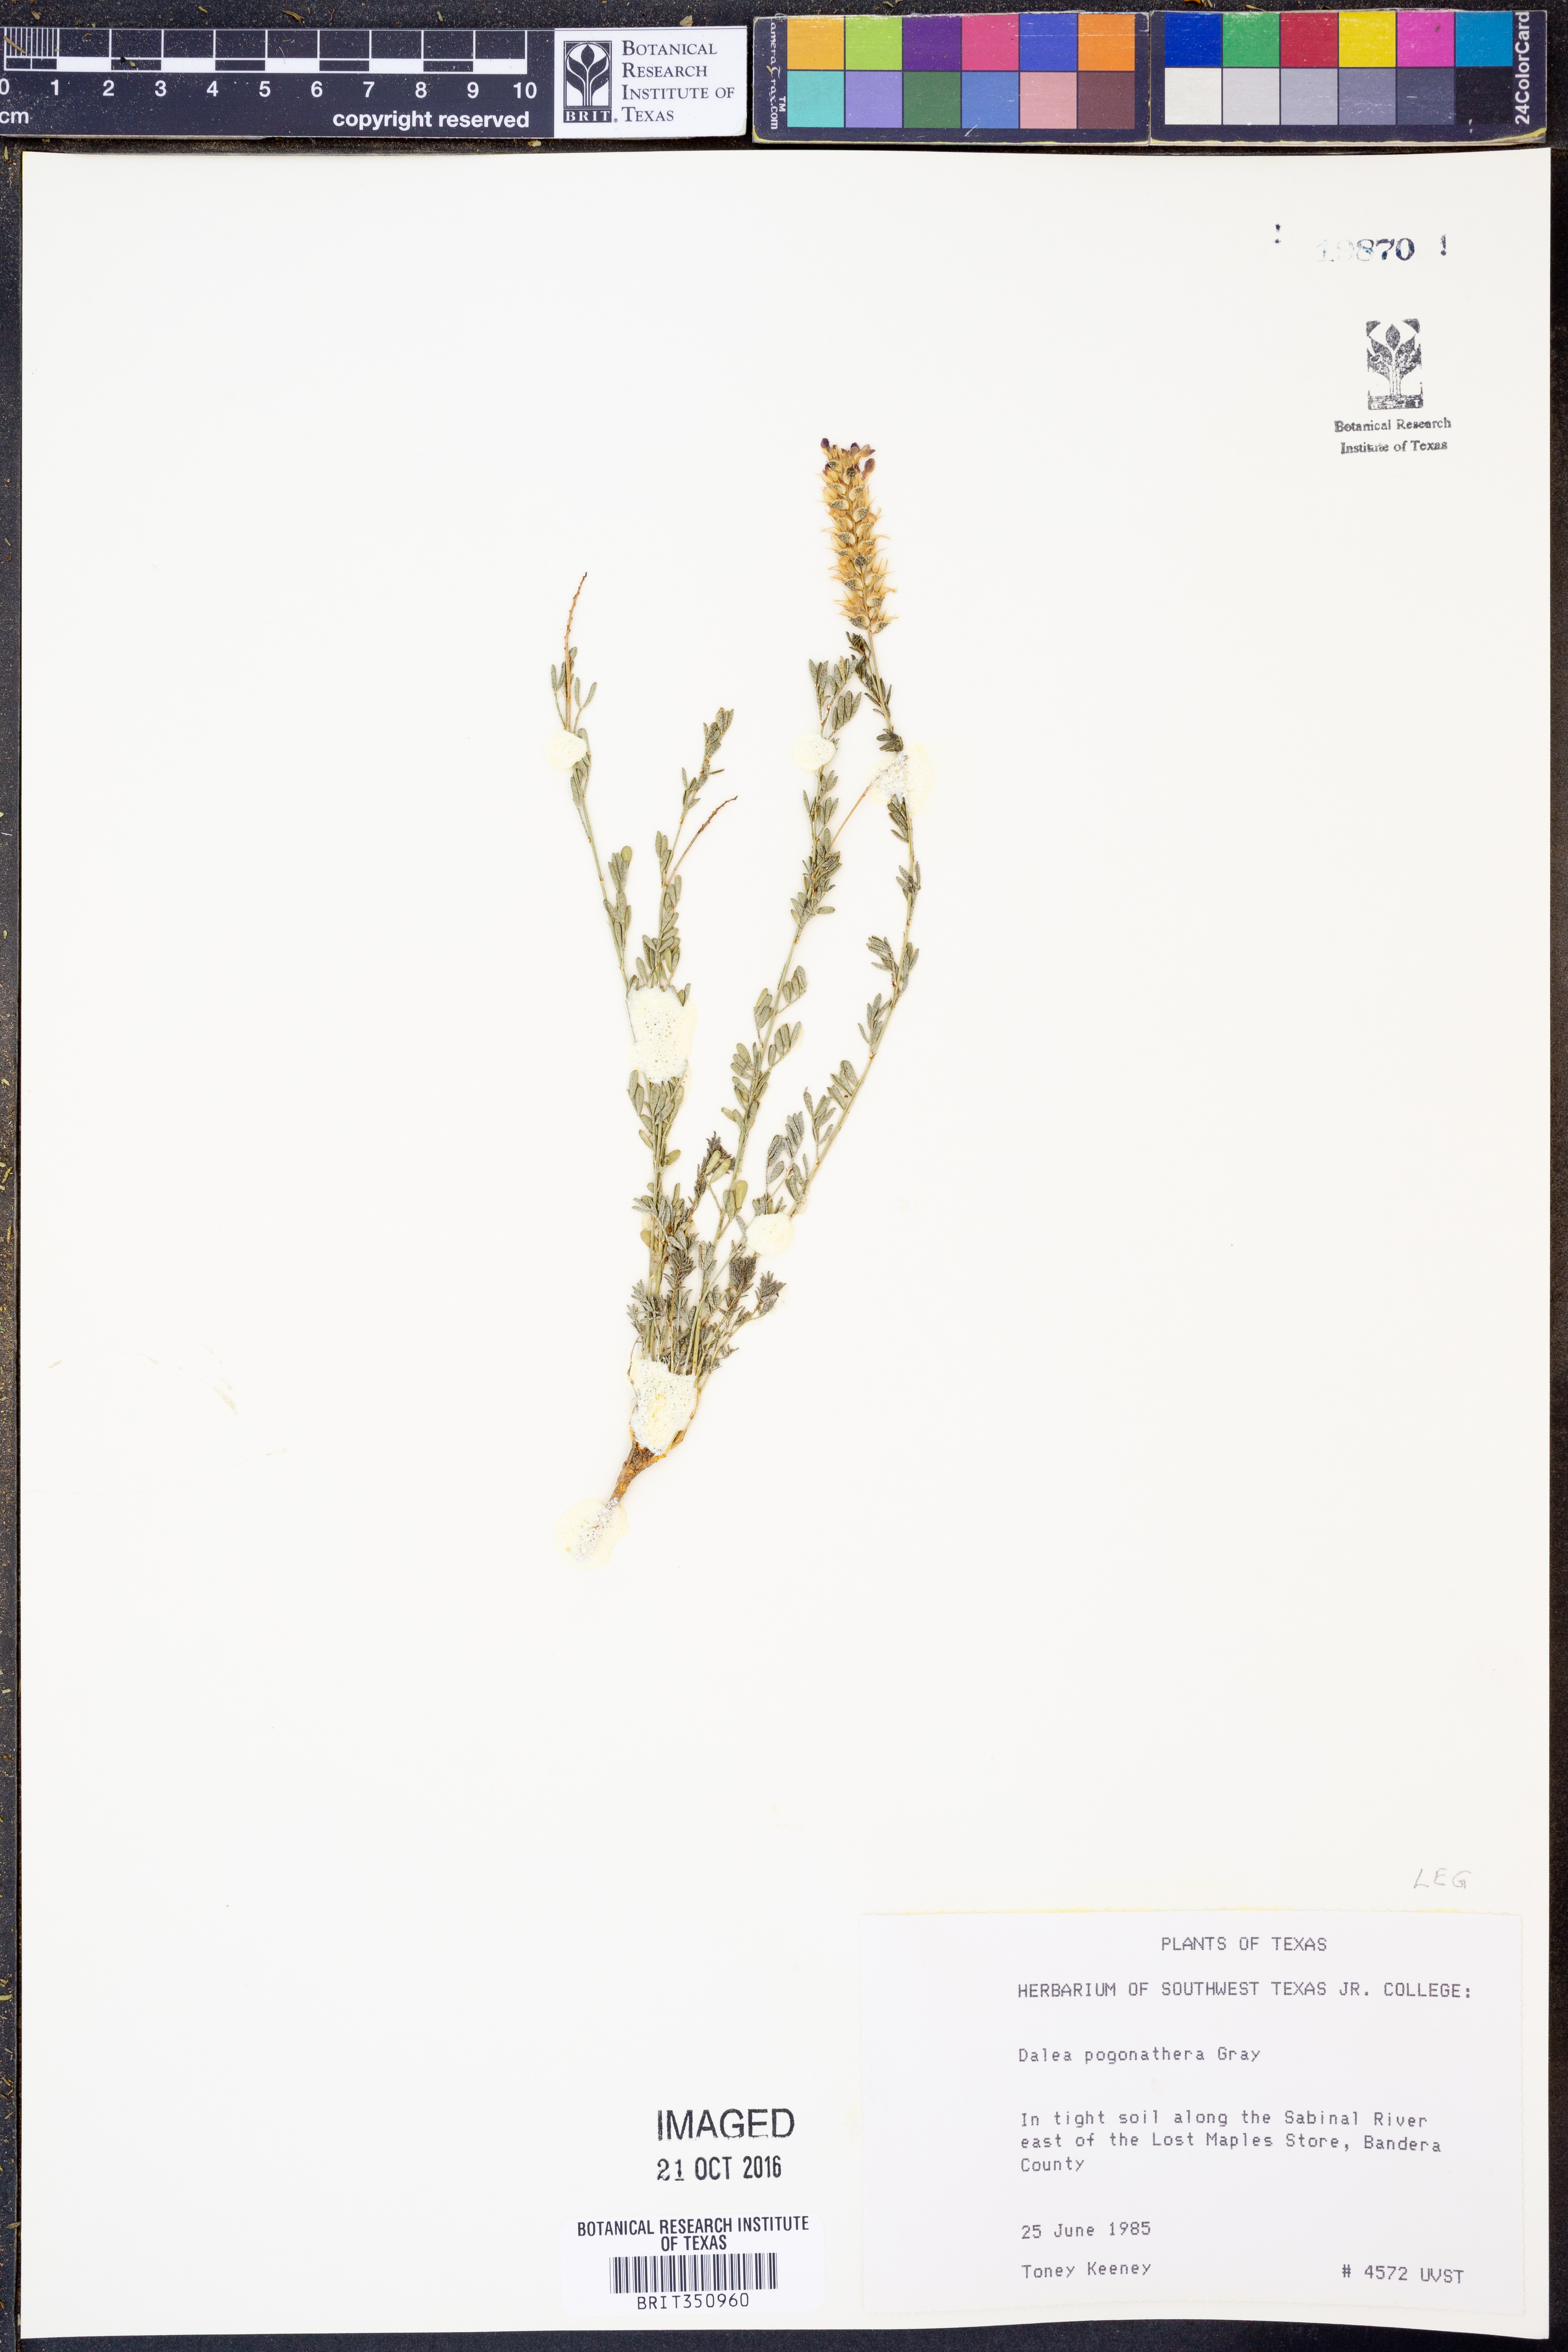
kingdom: Plantae
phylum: Tracheophyta
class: Magnoliopsida
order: Fabales
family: Fabaceae
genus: Dalea
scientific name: Dalea pogonathera
